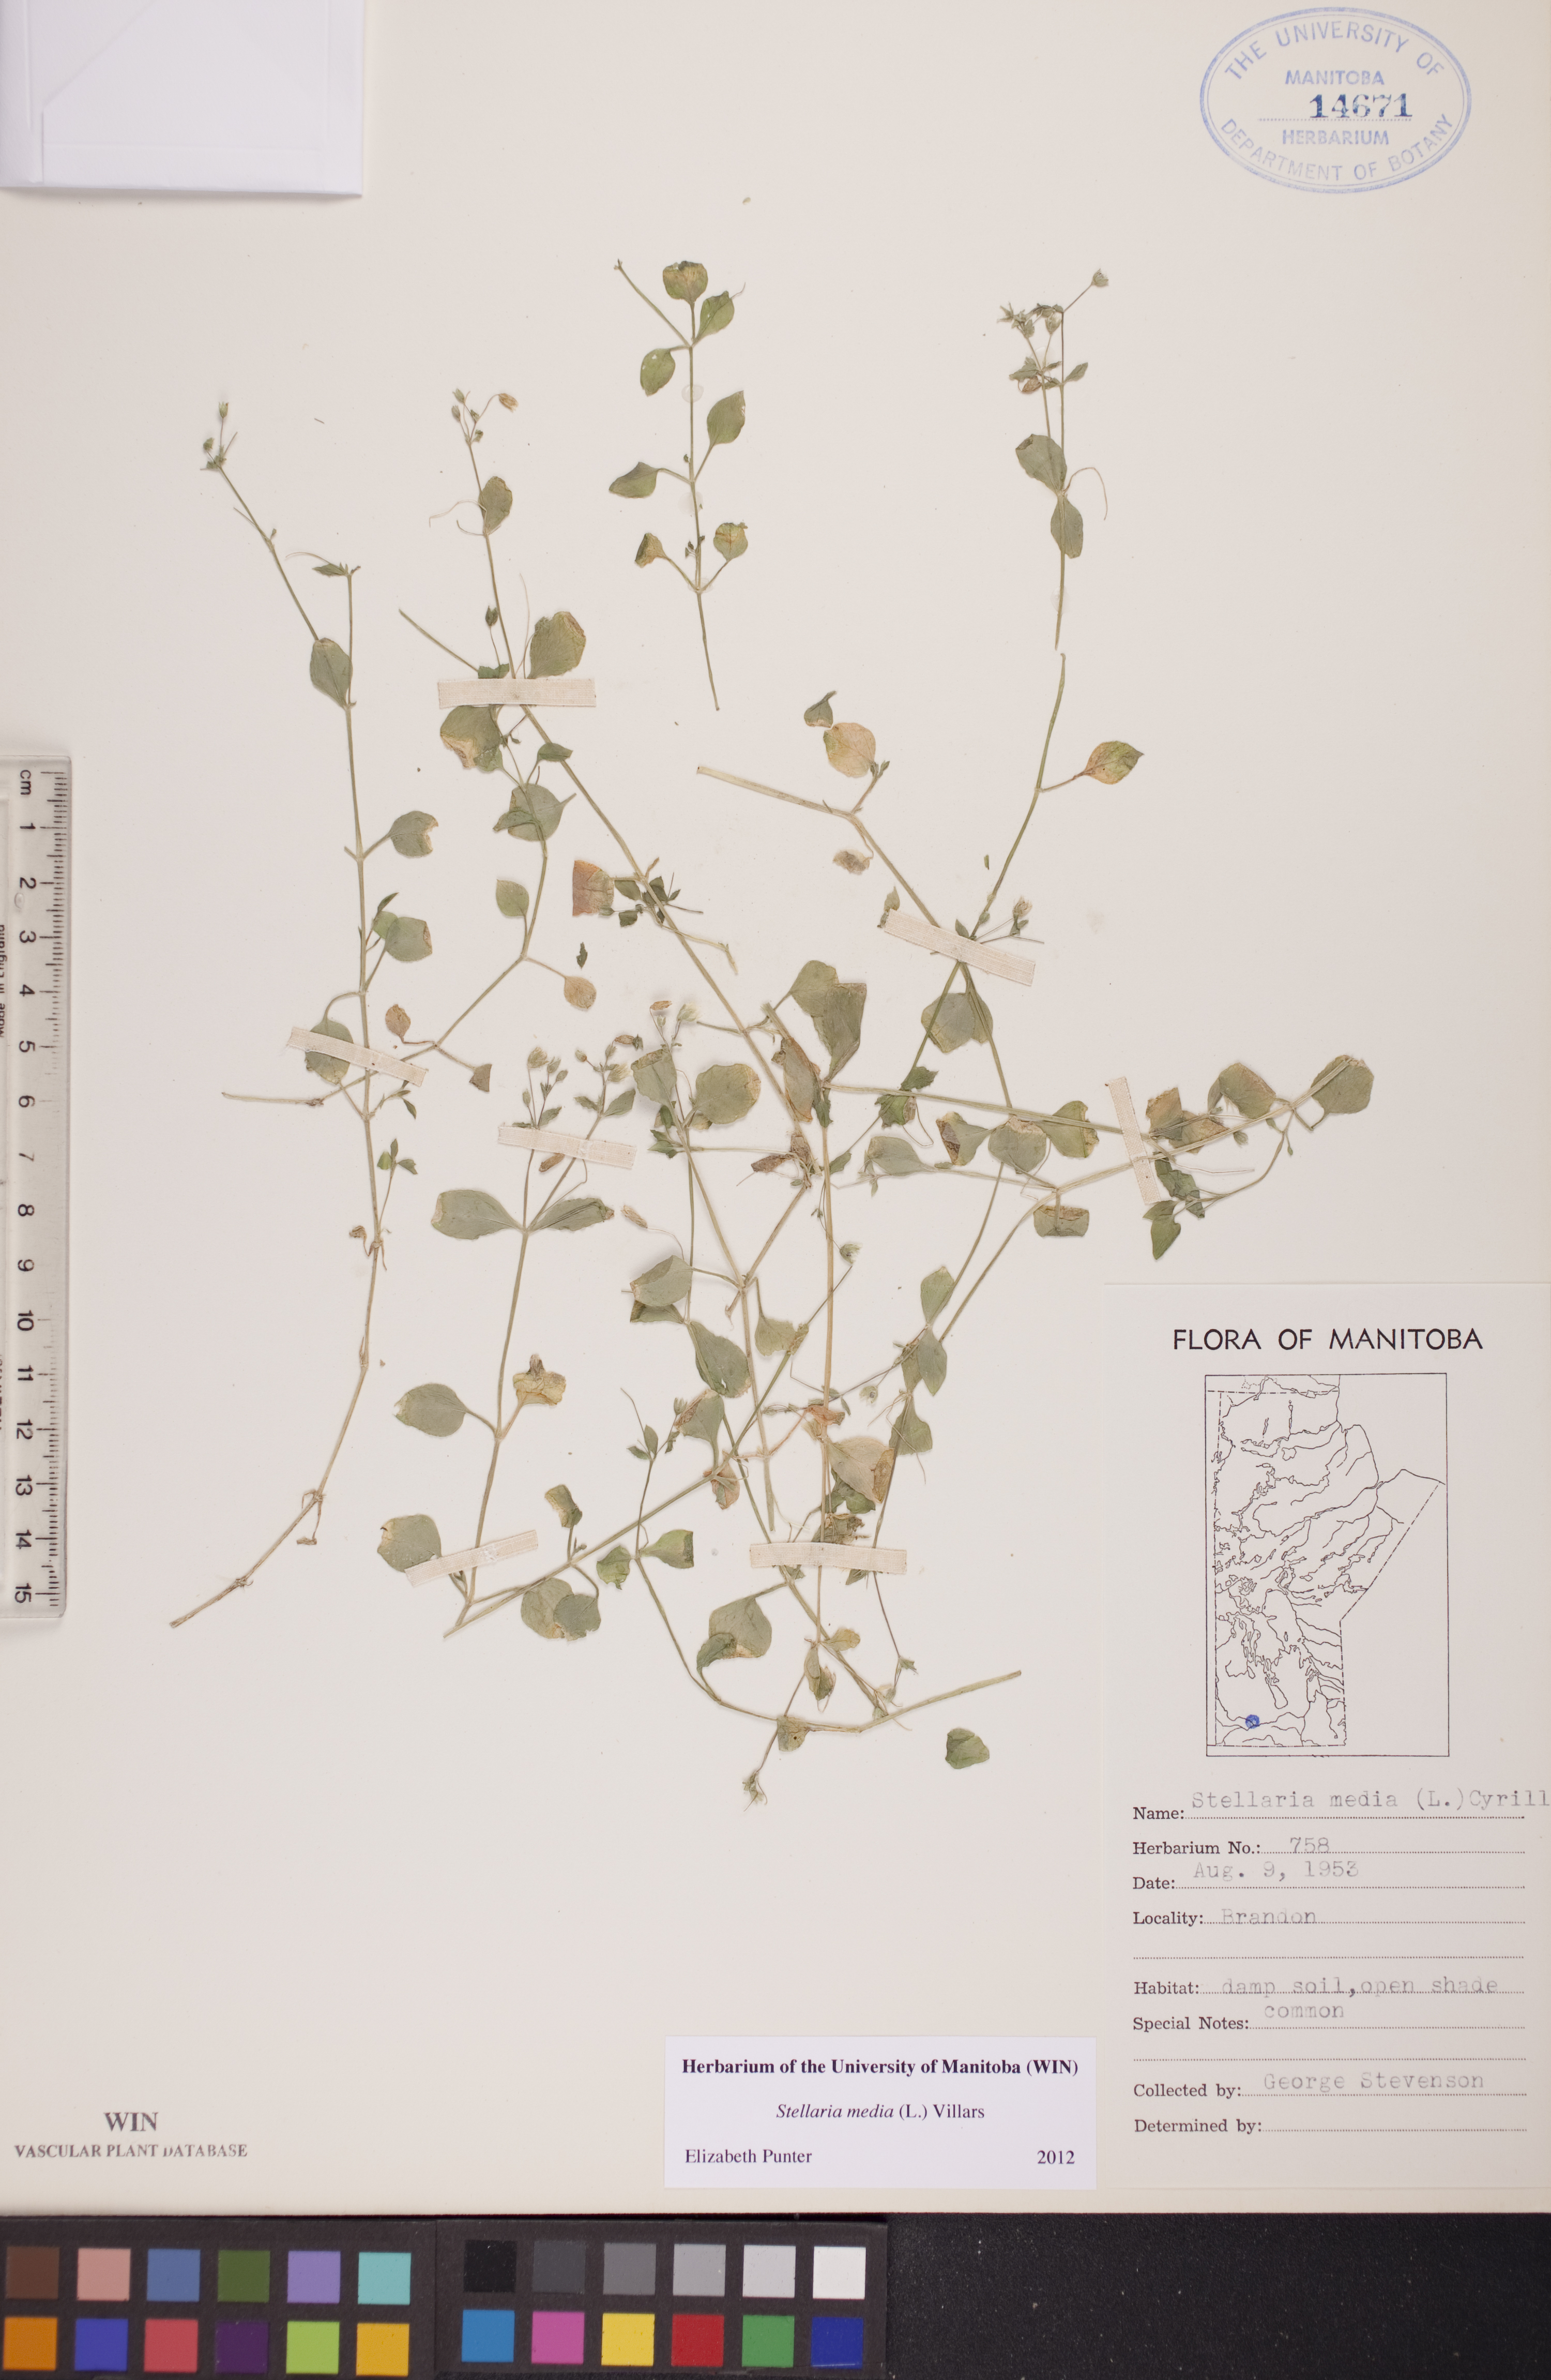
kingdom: Plantae
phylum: Tracheophyta
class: Magnoliopsida
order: Caryophyllales
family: Caryophyllaceae
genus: Stellaria
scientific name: Stellaria media
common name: Common chickweed
